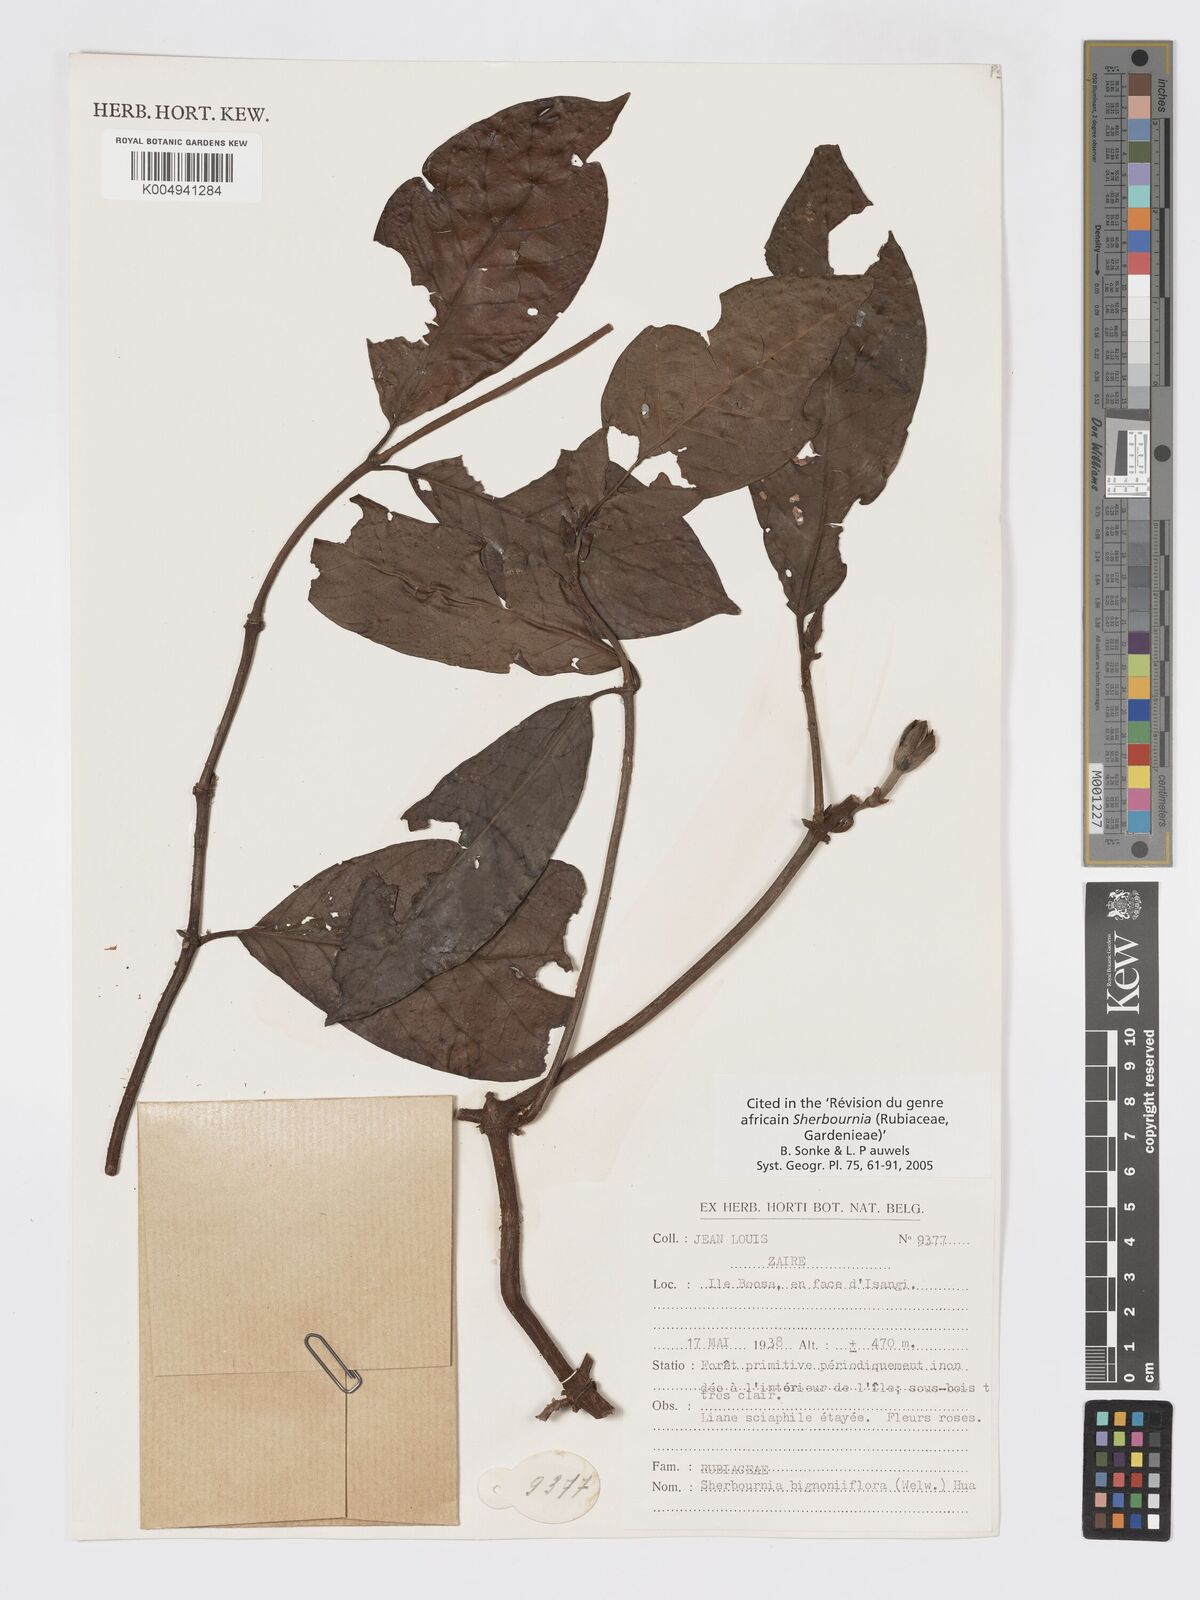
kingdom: Plantae
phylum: Tracheophyta
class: Magnoliopsida
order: Gentianales
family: Rubiaceae
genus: Sherbournia
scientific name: Sherbournia bignoniiflora
